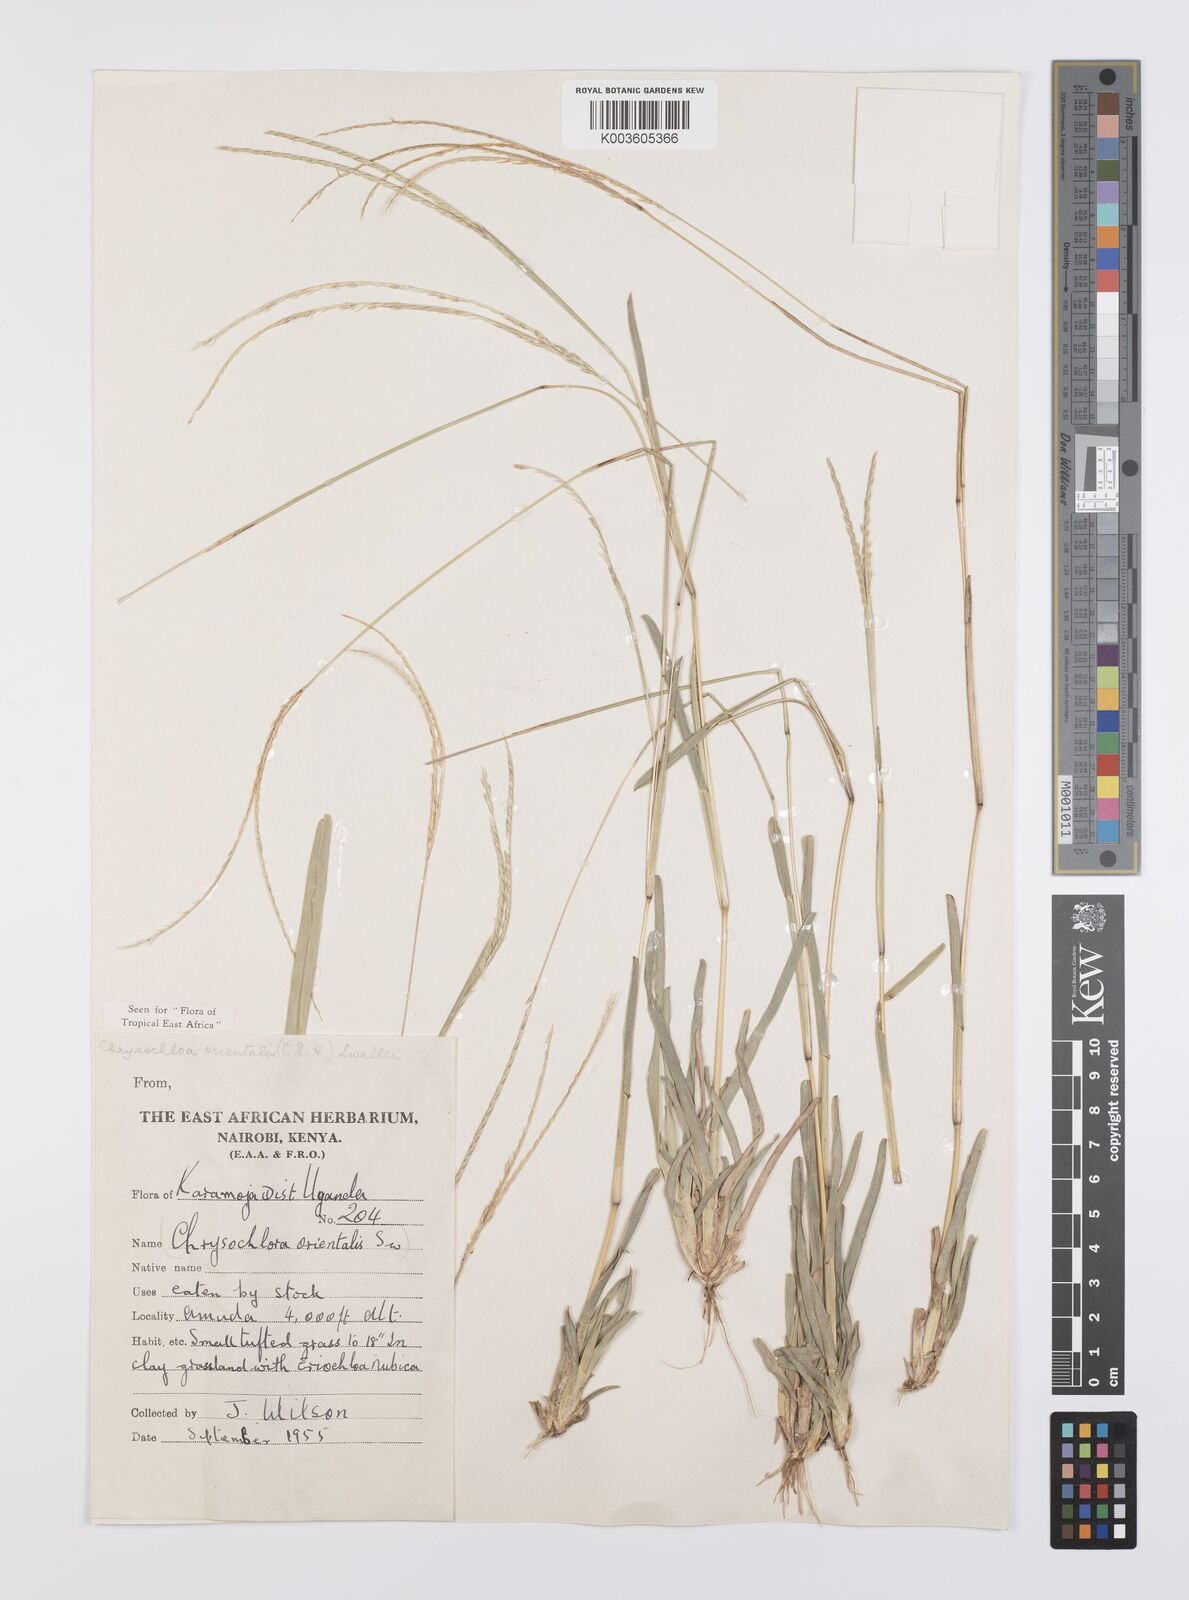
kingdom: Plantae
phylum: Tracheophyta
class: Liliopsida
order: Poales
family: Poaceae
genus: Chrysochloa
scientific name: Chrysochloa orientalis
